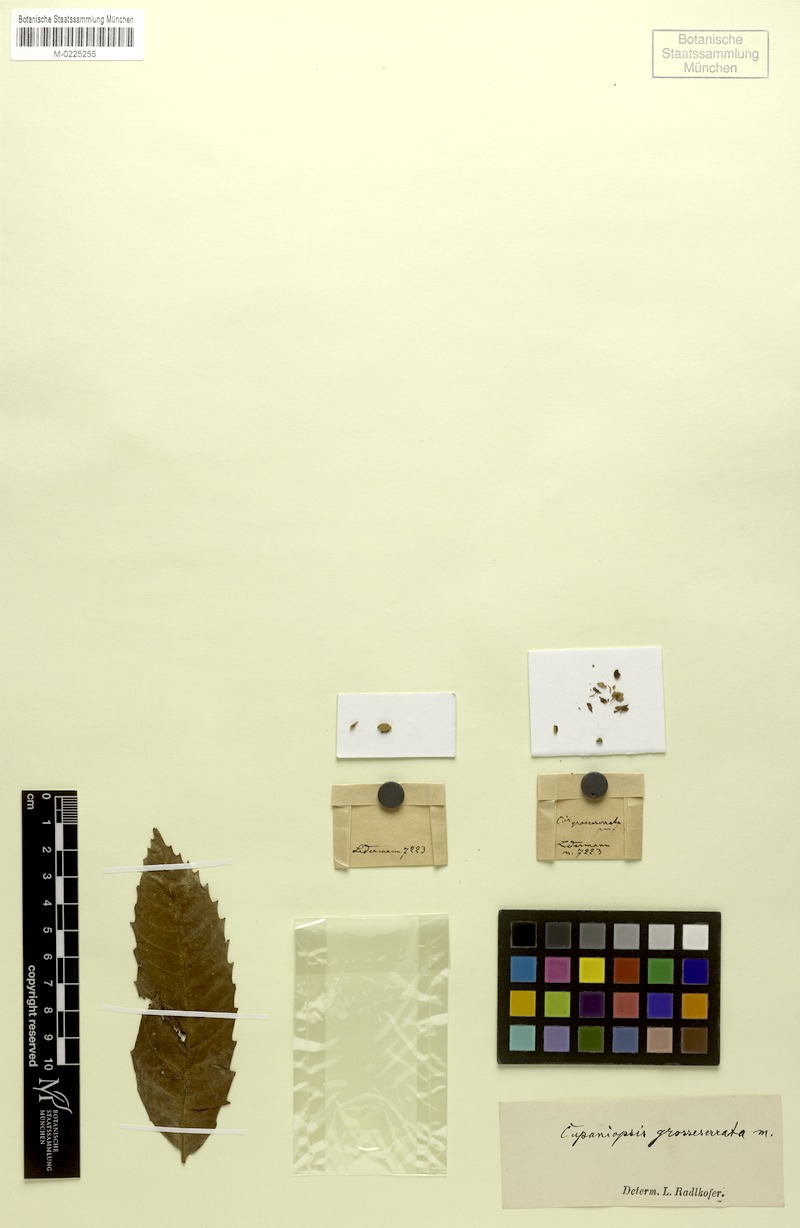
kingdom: Plantae
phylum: Tracheophyta
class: Magnoliopsida
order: Sapindales
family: Sapindaceae
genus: Cupaniopsis
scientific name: Cupaniopsis macropetala
